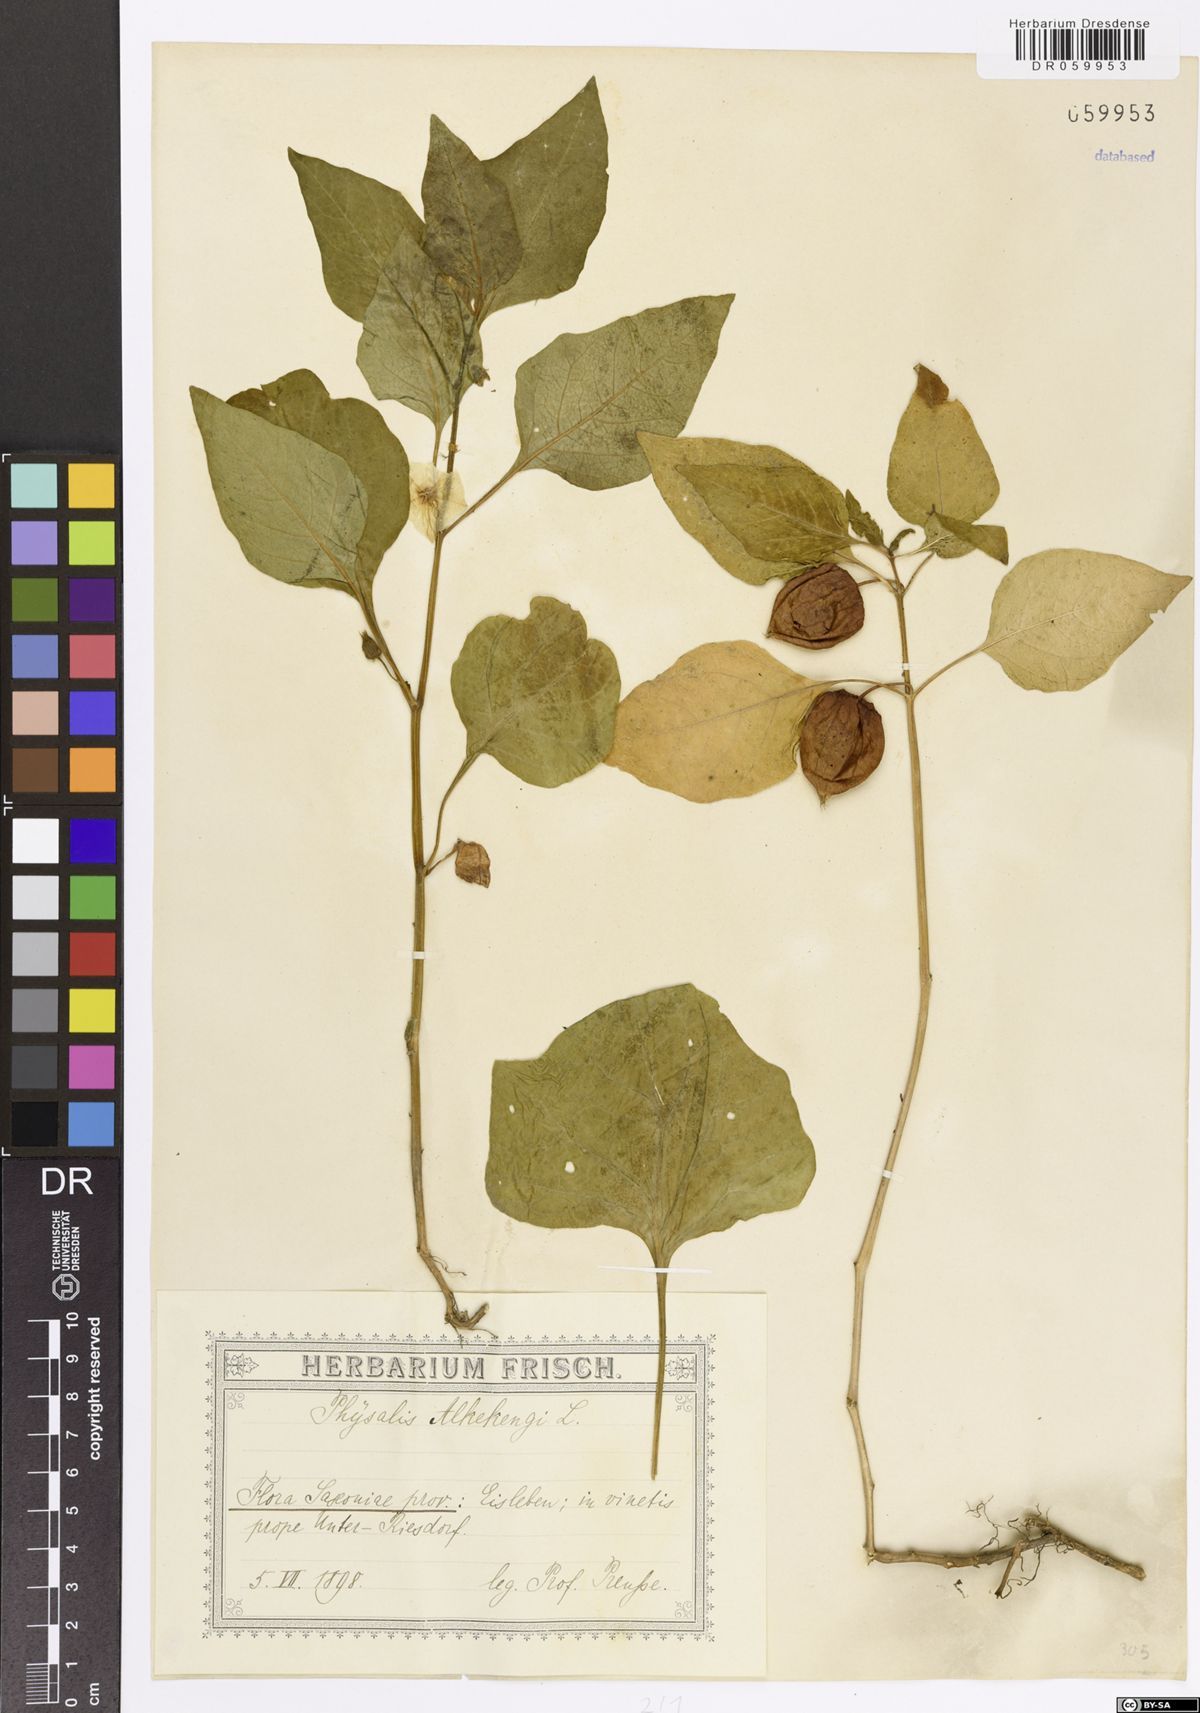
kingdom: Plantae
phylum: Tracheophyta
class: Magnoliopsida
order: Solanales
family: Solanaceae
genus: Alkekengi
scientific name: Alkekengi officinarum
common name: Japanese-lantern
